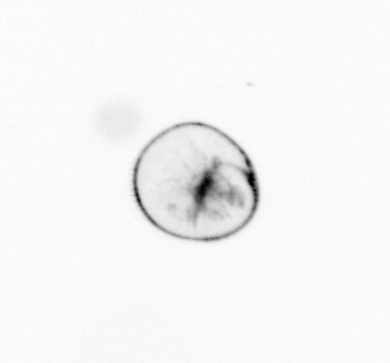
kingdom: Chromista
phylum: Myzozoa
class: Dinophyceae
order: Noctilucales
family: Noctilucaceae
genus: Noctiluca
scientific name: Noctiluca scintillans
